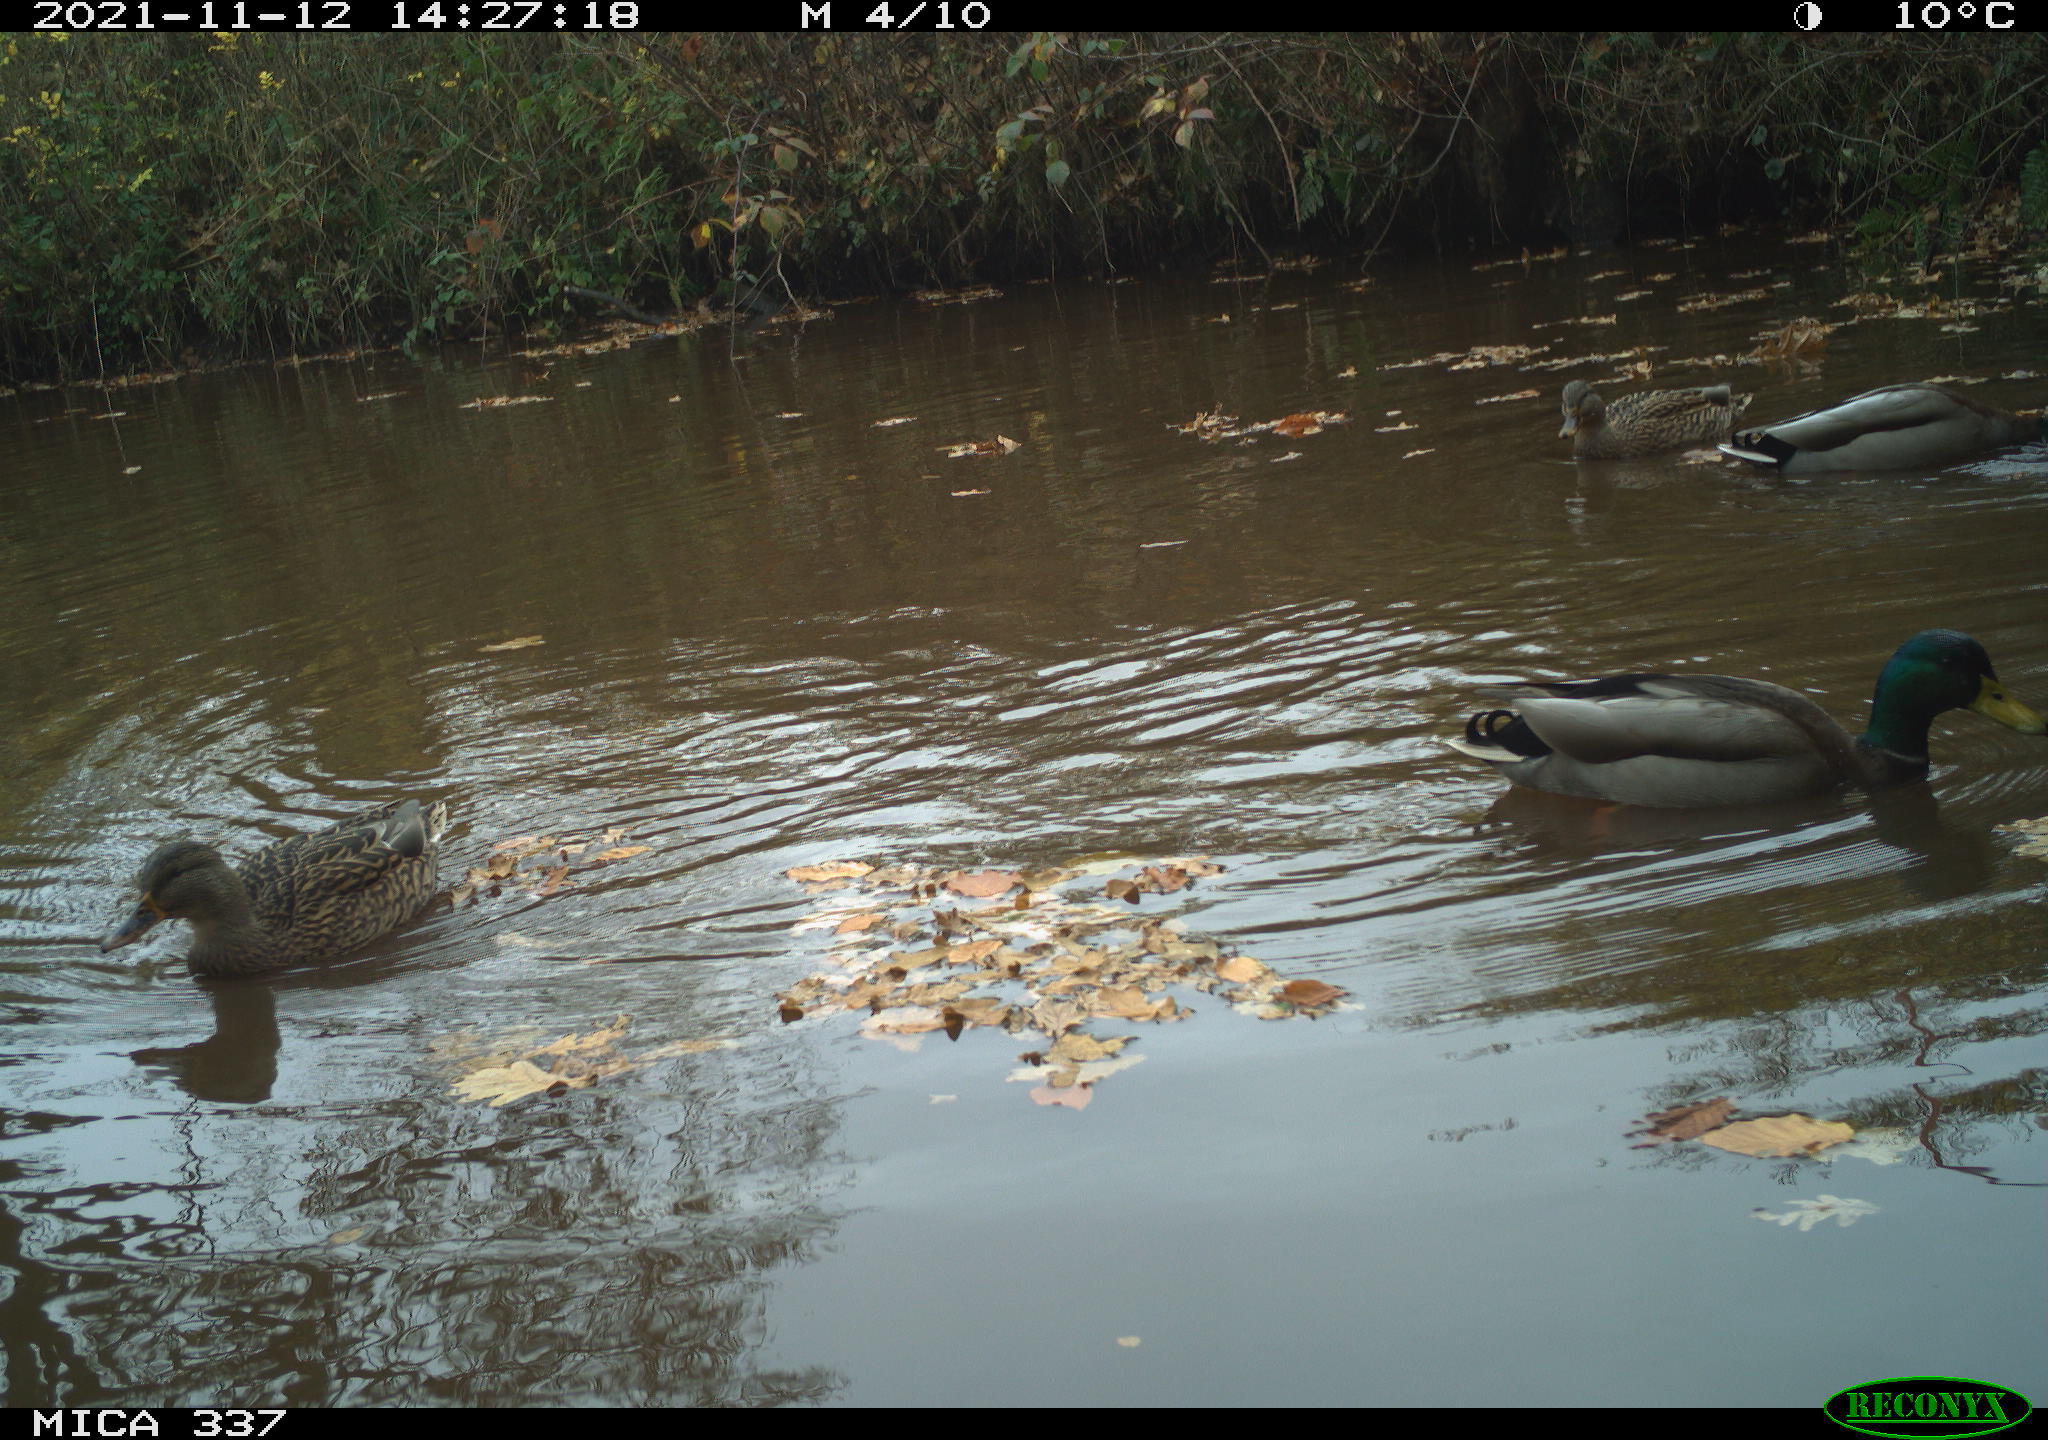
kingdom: Animalia
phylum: Chordata
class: Aves
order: Anseriformes
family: Anatidae
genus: Anas
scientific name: Anas platyrhynchos
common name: Mallard
